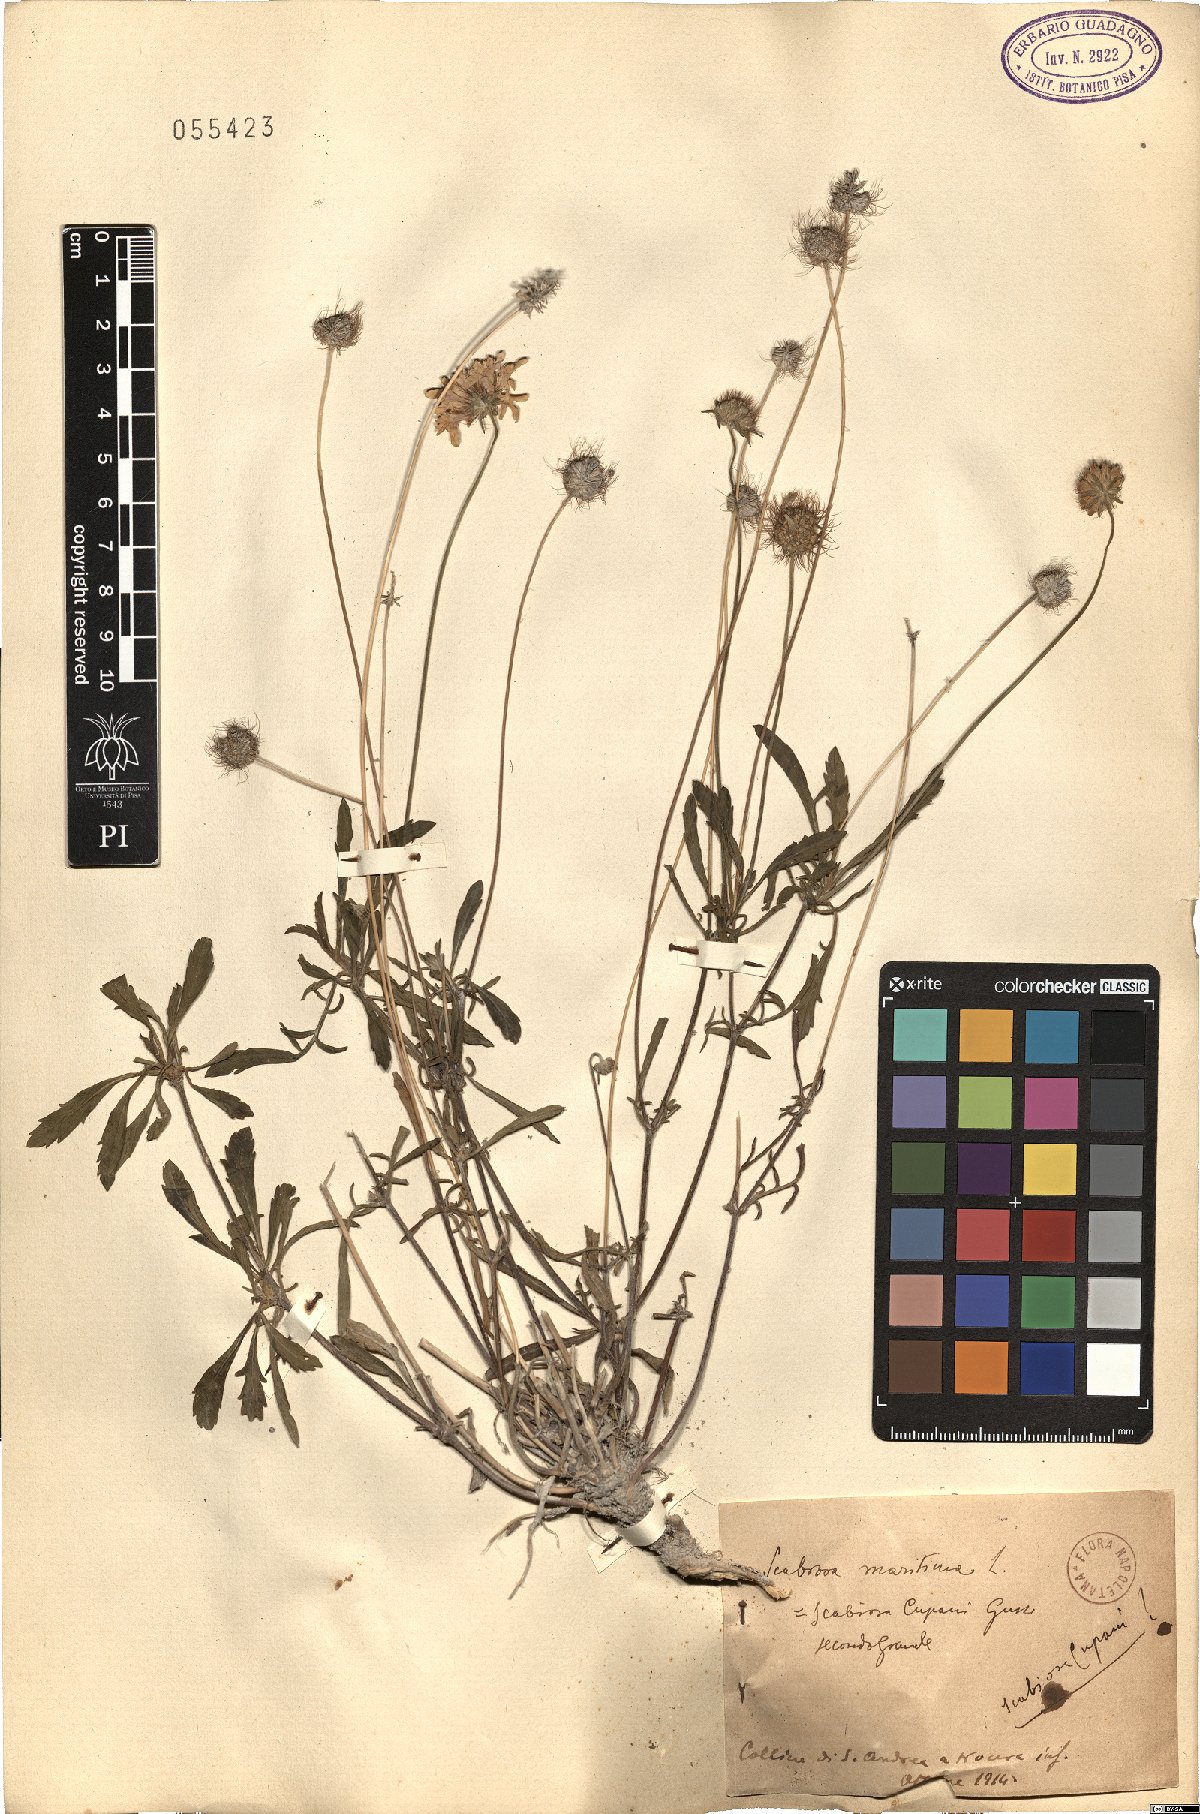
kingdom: Plantae
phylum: Tracheophyta
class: Magnoliopsida
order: Dipsacales
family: Caprifoliaceae
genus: Sixalix
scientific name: Sixalix maritima
